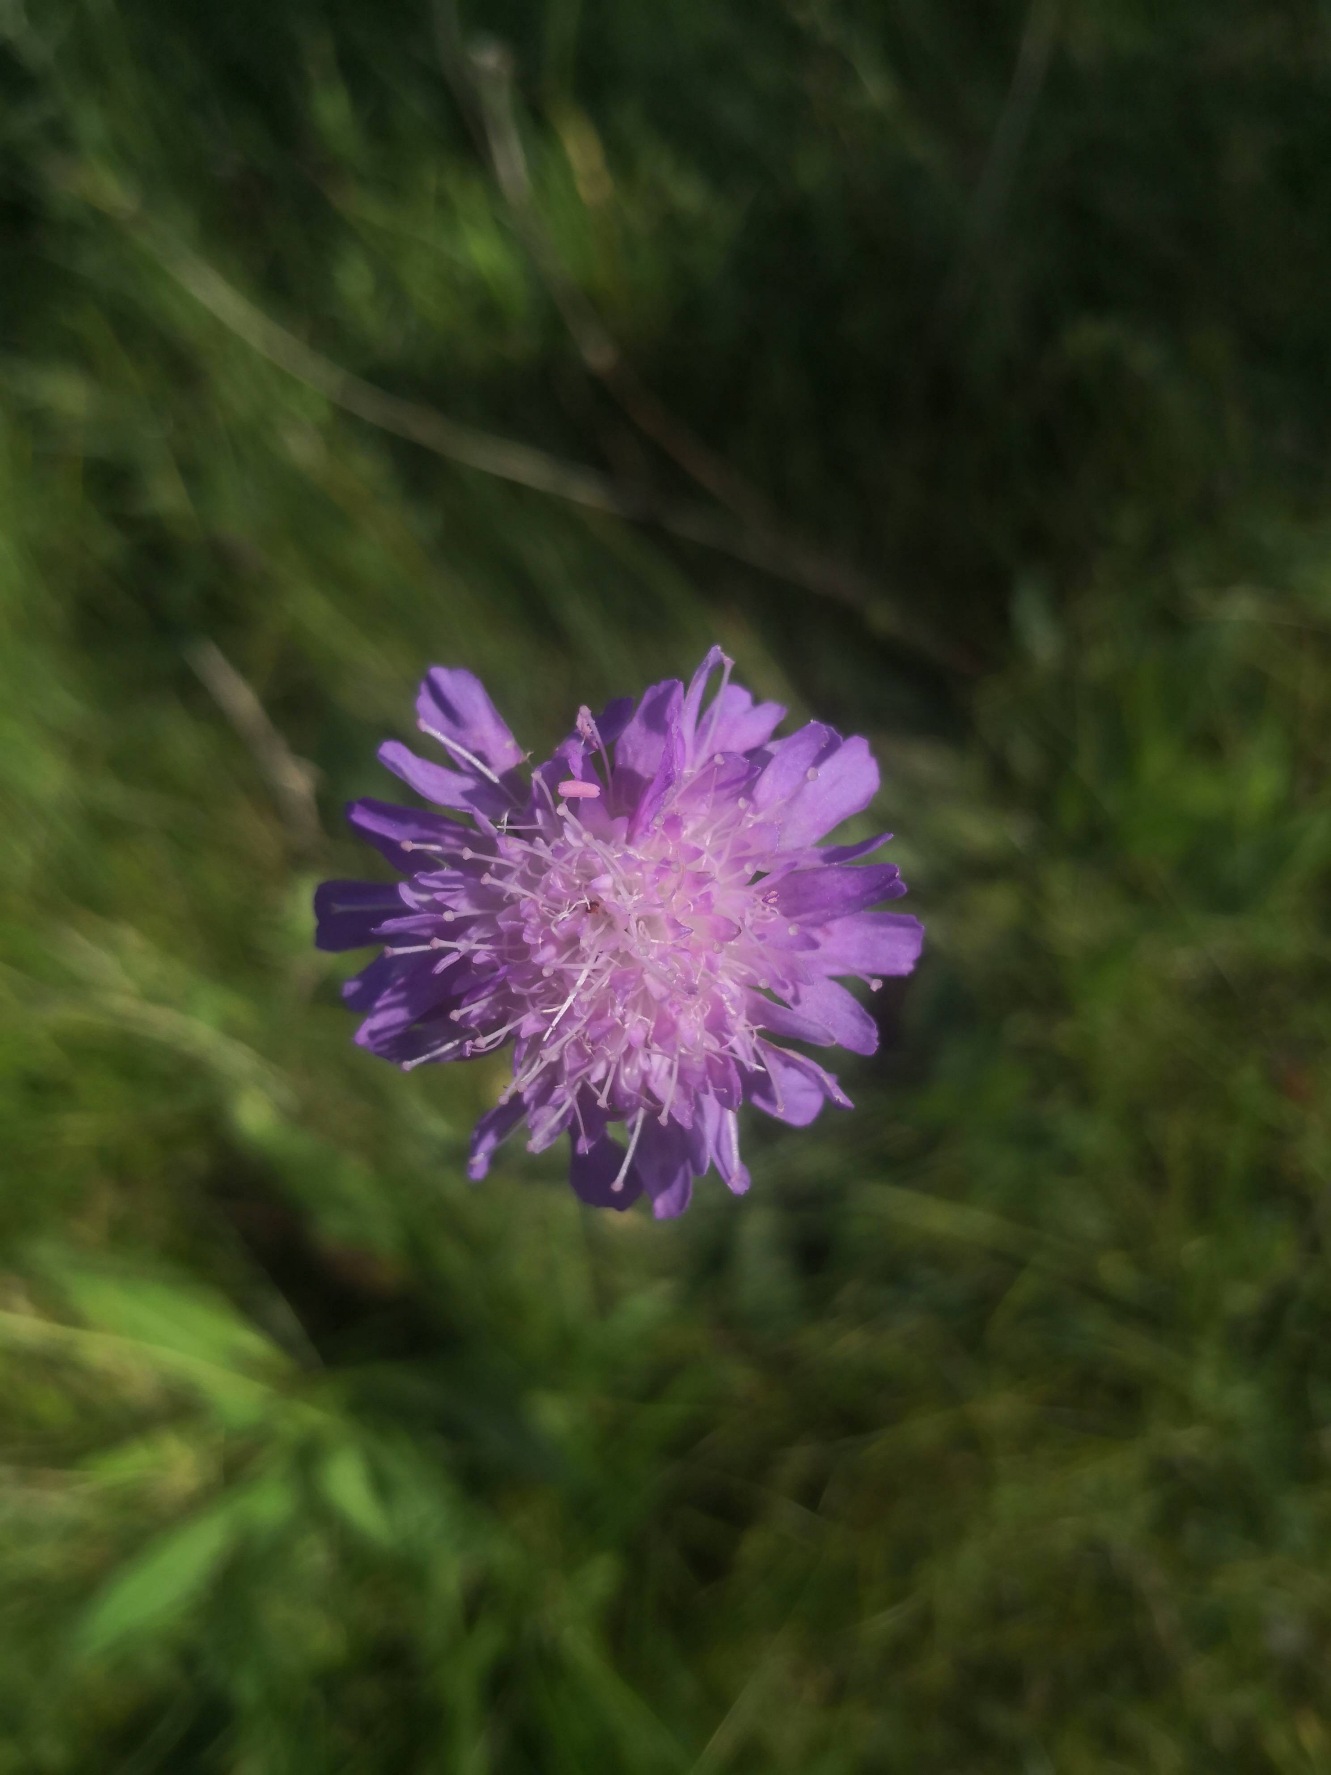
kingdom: Plantae
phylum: Tracheophyta
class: Magnoliopsida
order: Dipsacales
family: Caprifoliaceae
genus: Knautia
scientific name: Knautia arvensis
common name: Blåhat
